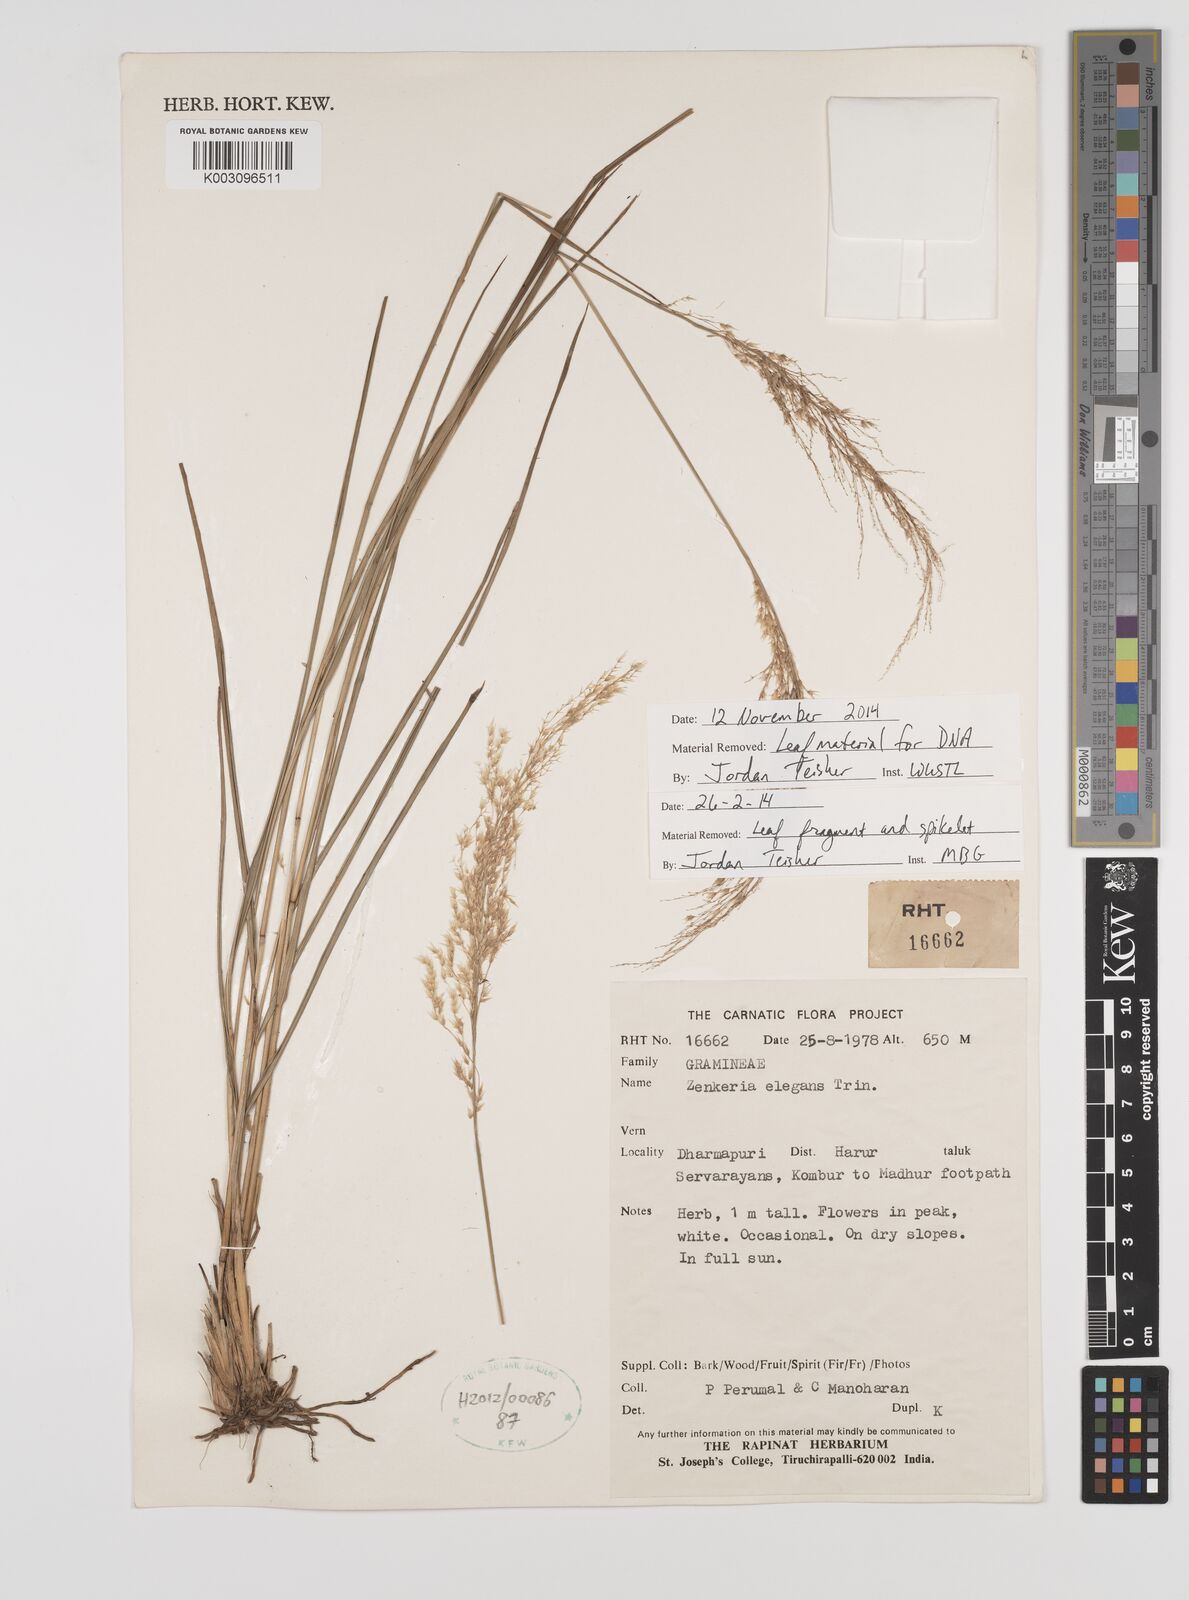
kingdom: Plantae
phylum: Tracheophyta
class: Liliopsida
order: Poales
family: Poaceae
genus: Zenkeria
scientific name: Zenkeria elegans
